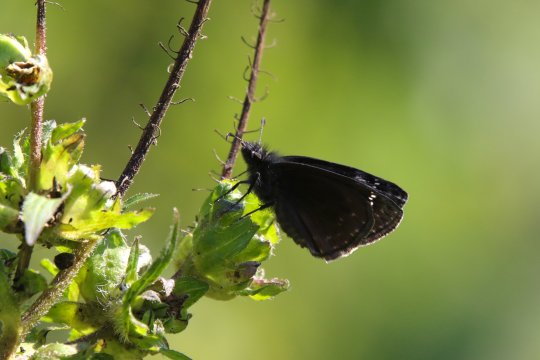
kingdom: Animalia
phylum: Arthropoda
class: Insecta
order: Lepidoptera
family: Hesperiidae
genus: Gesta
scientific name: Gesta
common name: Wild Indigo Duskywing
